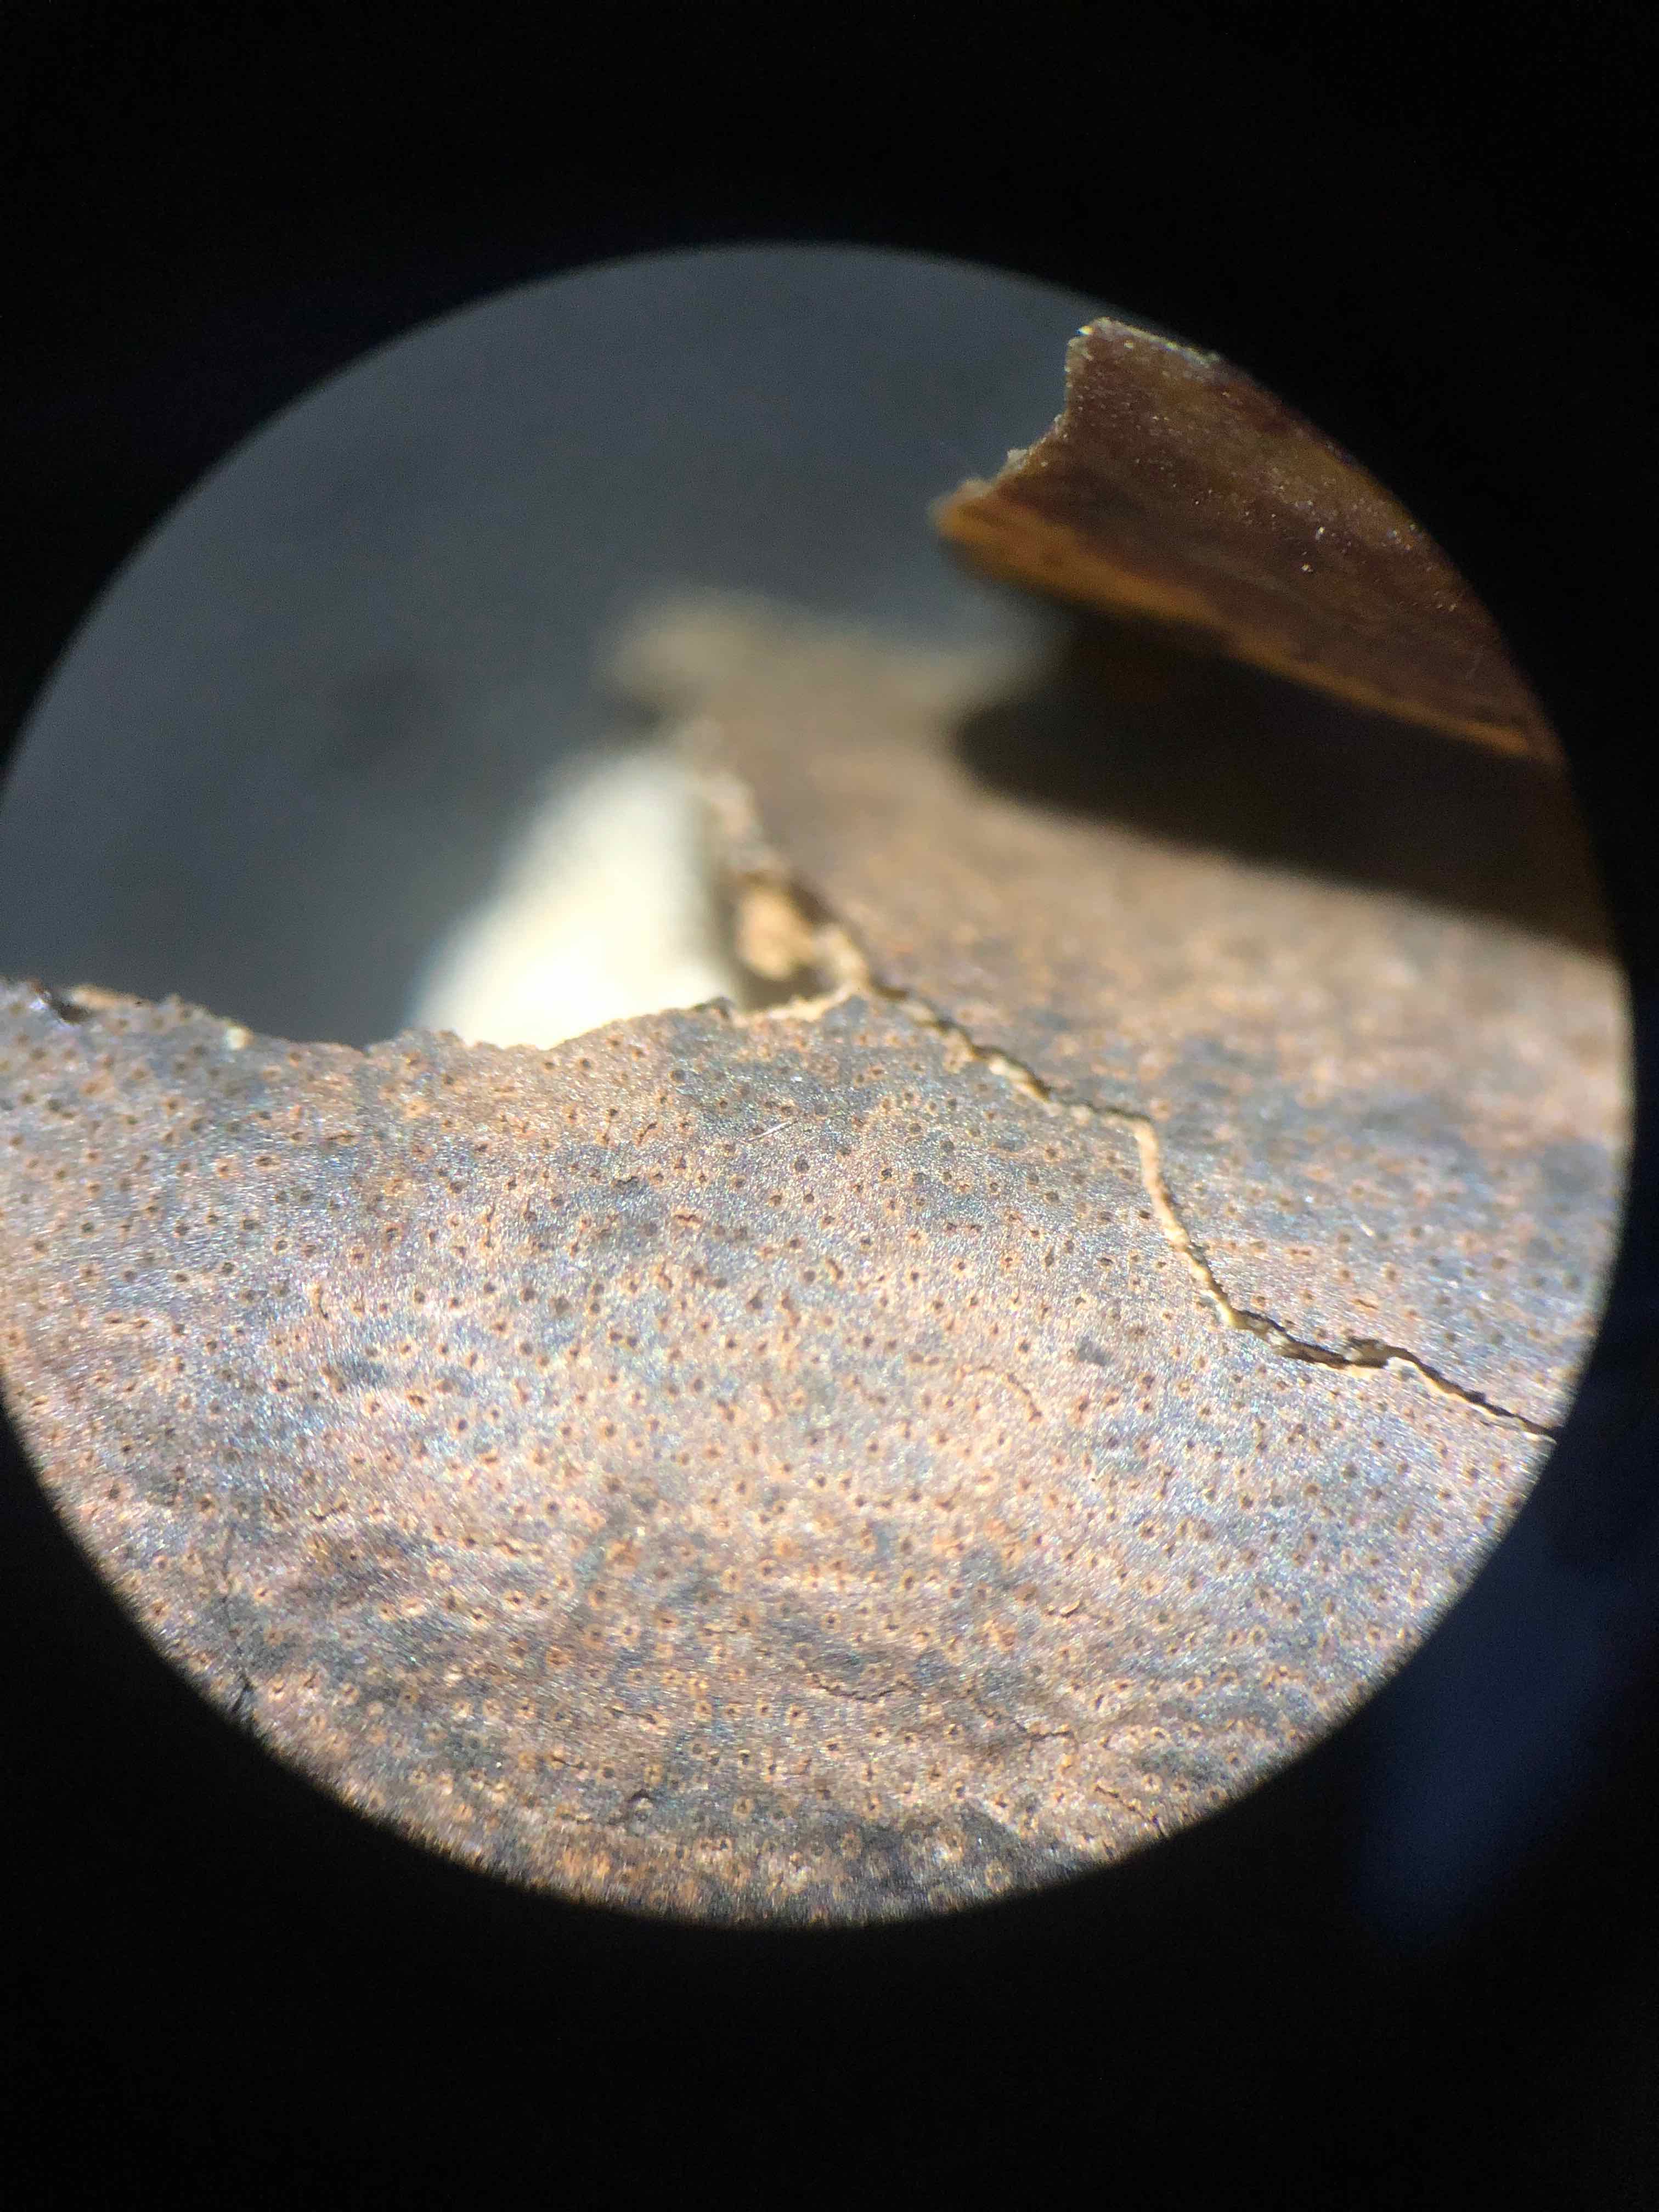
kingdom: Fungi
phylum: Ascomycota
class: Sordariomycetes
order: Xylariales
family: Diatrypaceae
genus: Diatrype
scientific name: Diatrype decorticata
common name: barksprænger-kulskorpe
